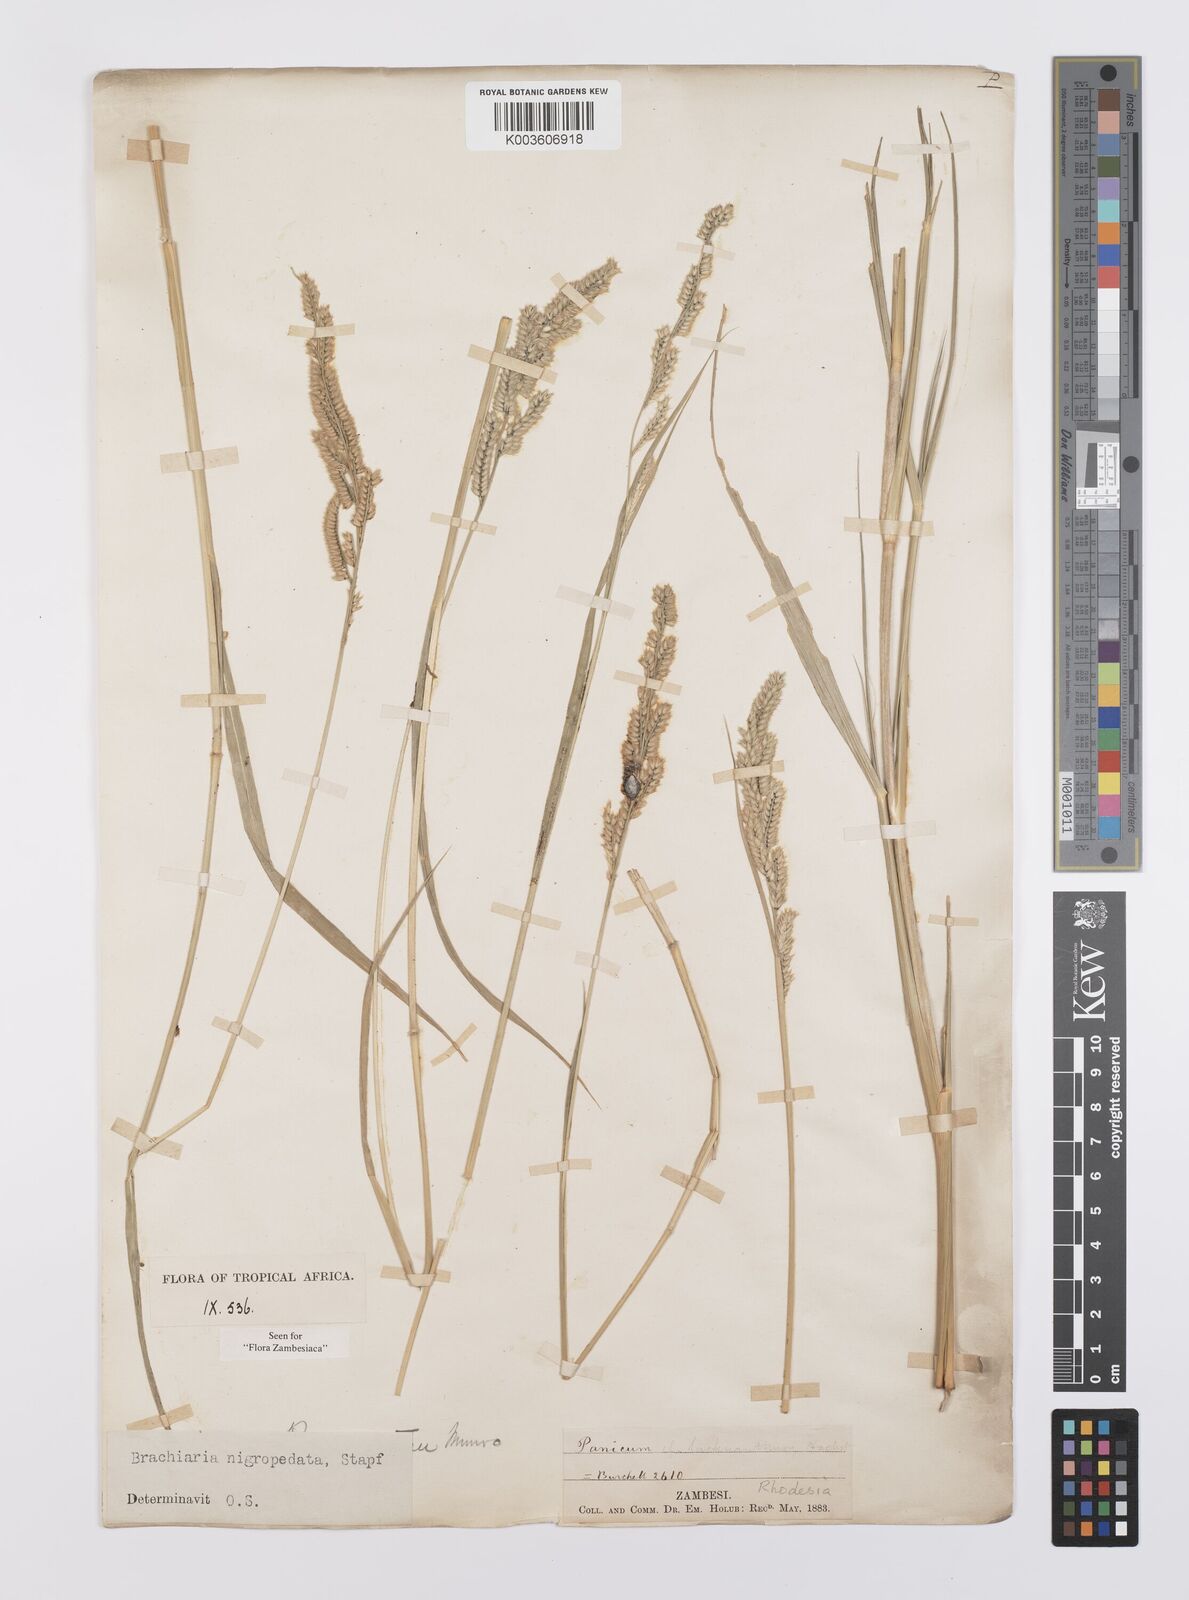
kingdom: Plantae
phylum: Tracheophyta
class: Liliopsida
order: Poales
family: Poaceae
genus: Urochloa
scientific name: Urochloa nigropedata
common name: Spotted signal grass
